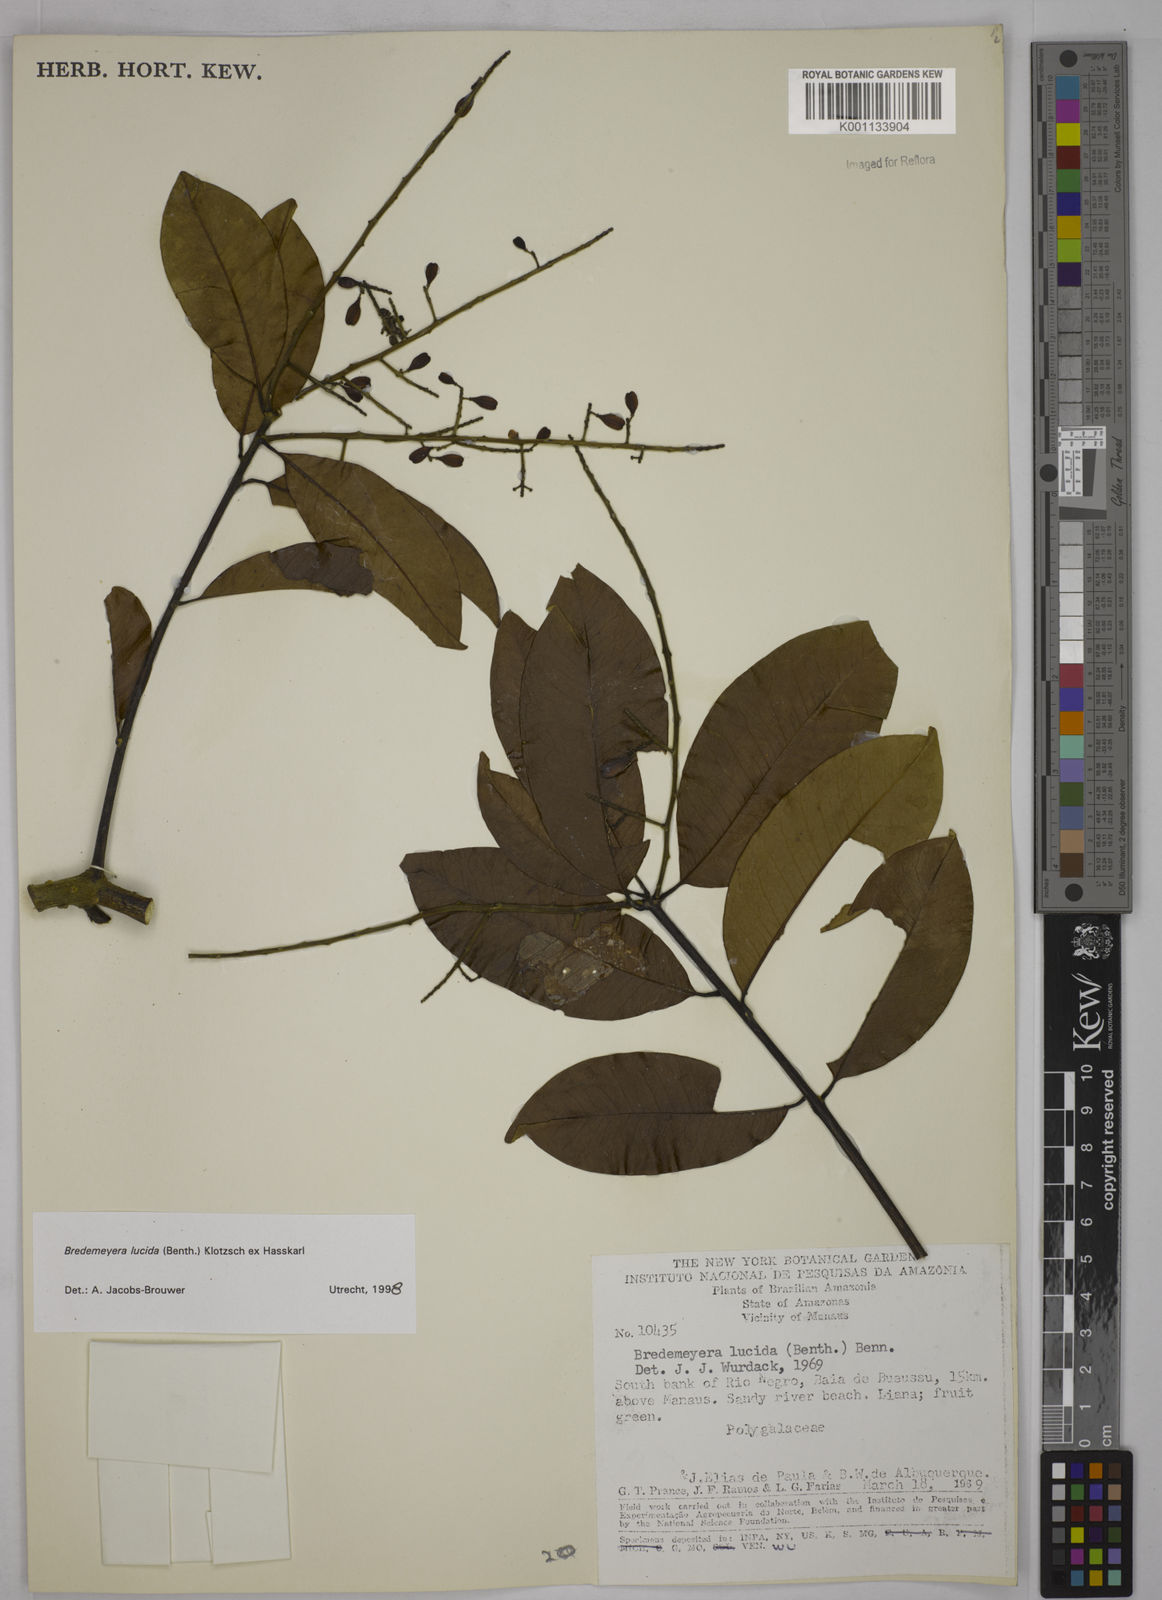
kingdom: Plantae
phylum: Tracheophyta
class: Magnoliopsida
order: Fabales
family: Polygalaceae
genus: Bredemeyera
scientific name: Bredemeyera lucida
